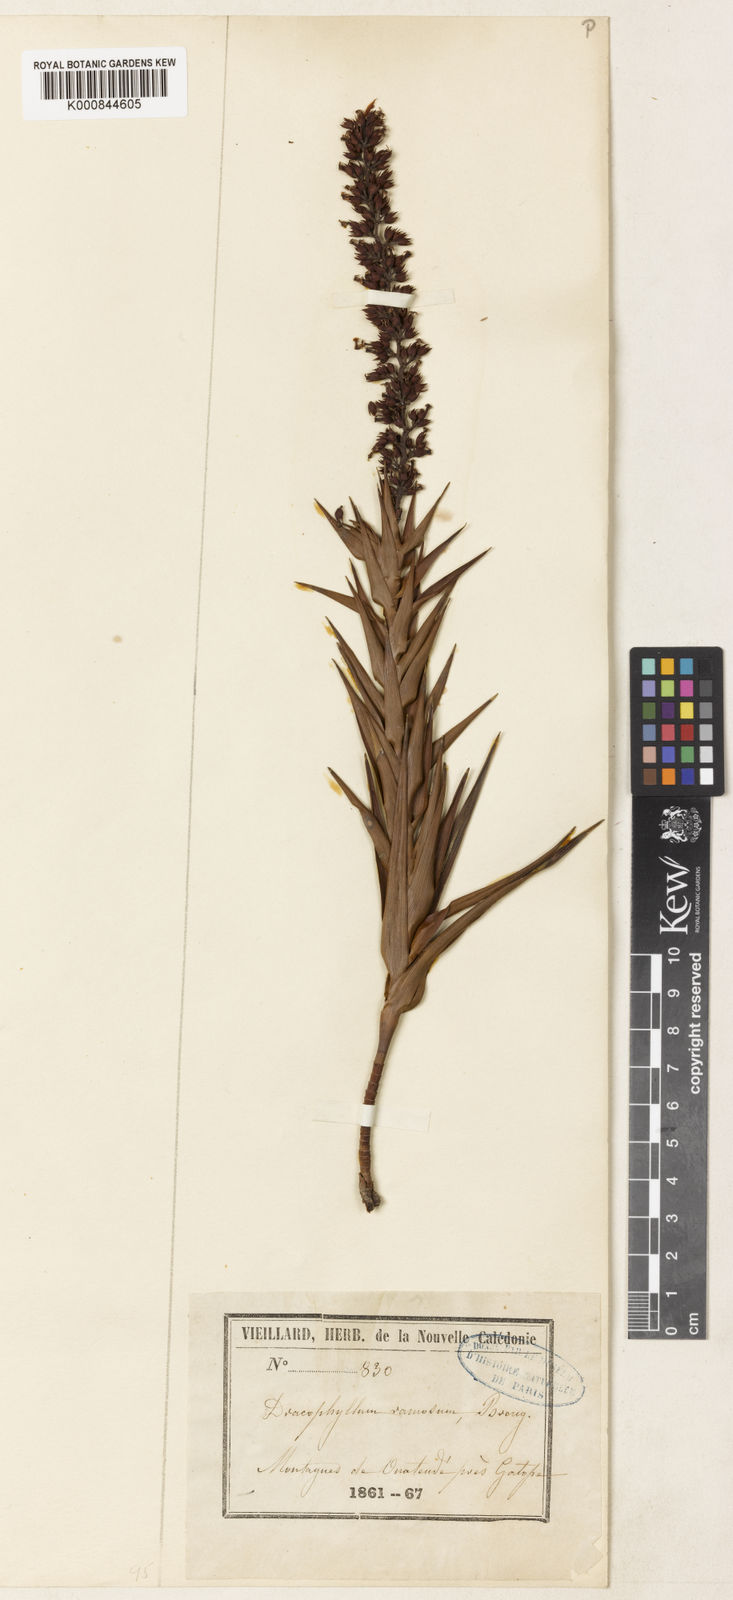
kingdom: Plantae
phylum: Tracheophyta
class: Magnoliopsida
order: Ericales
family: Ericaceae
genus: Dracophyllum
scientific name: Dracophyllum ramosum
